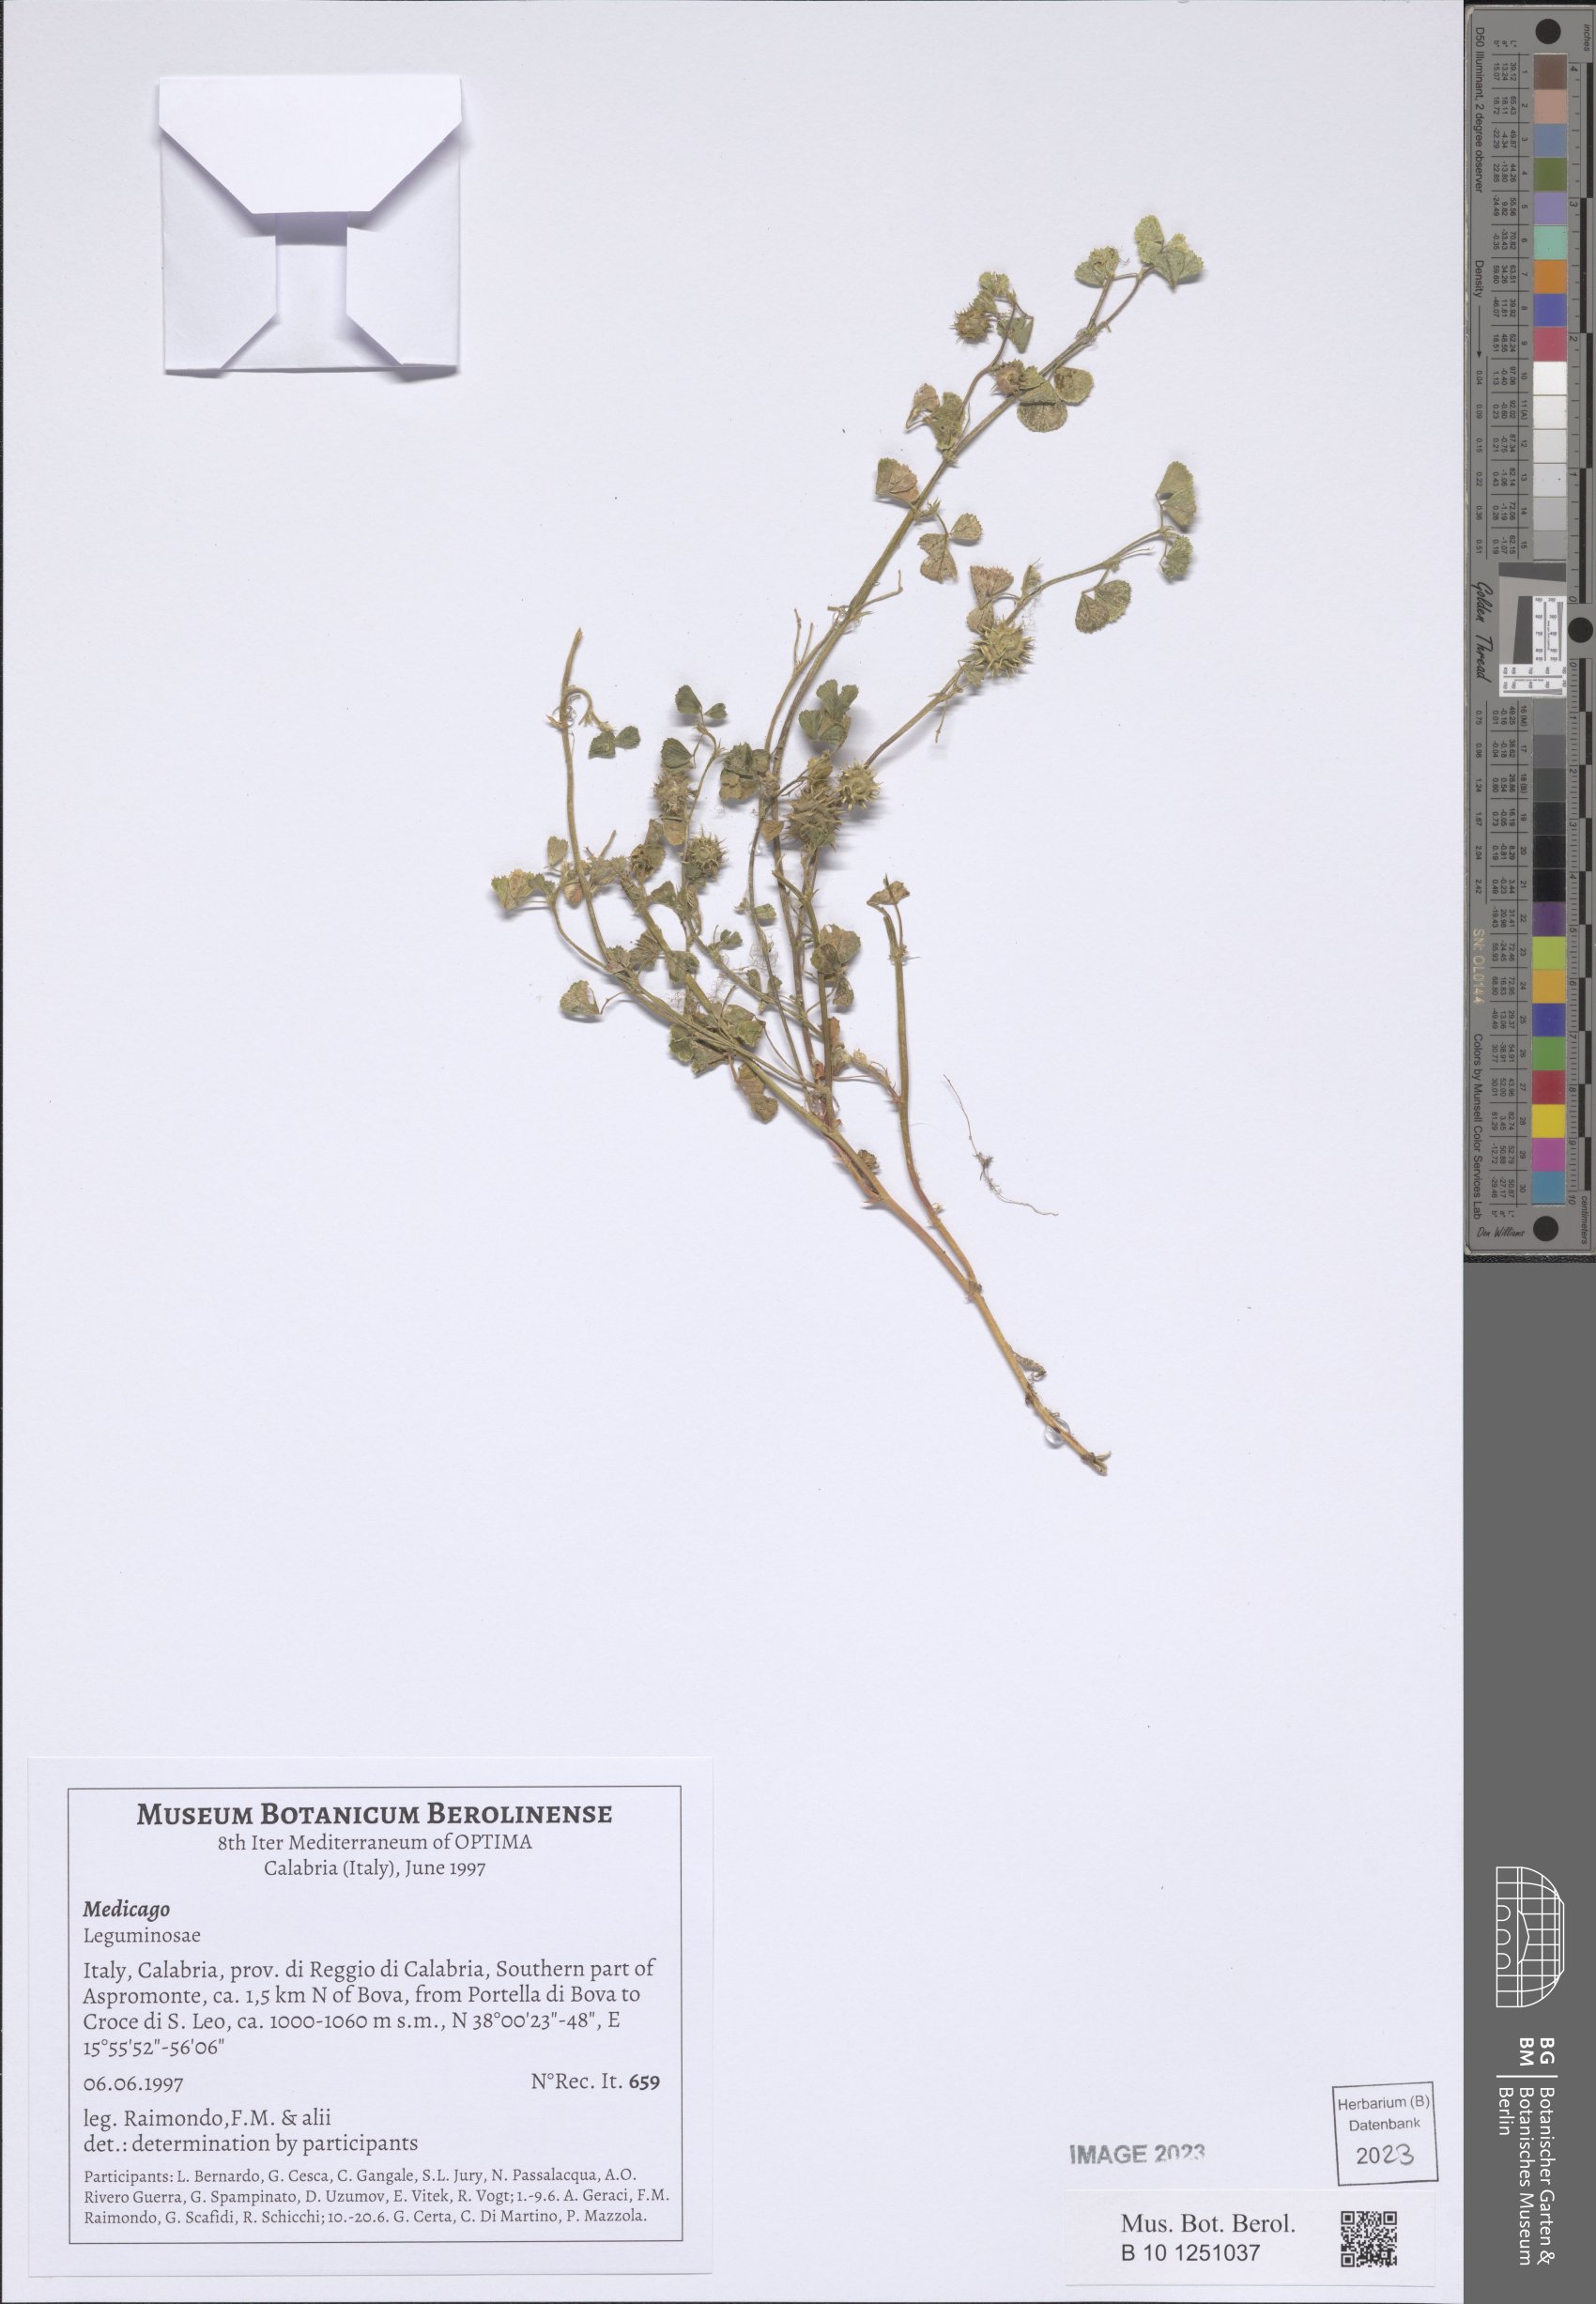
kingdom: Plantae
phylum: Tracheophyta
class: Magnoliopsida
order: Fabales
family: Fabaceae
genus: Medicago
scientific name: Medicago
